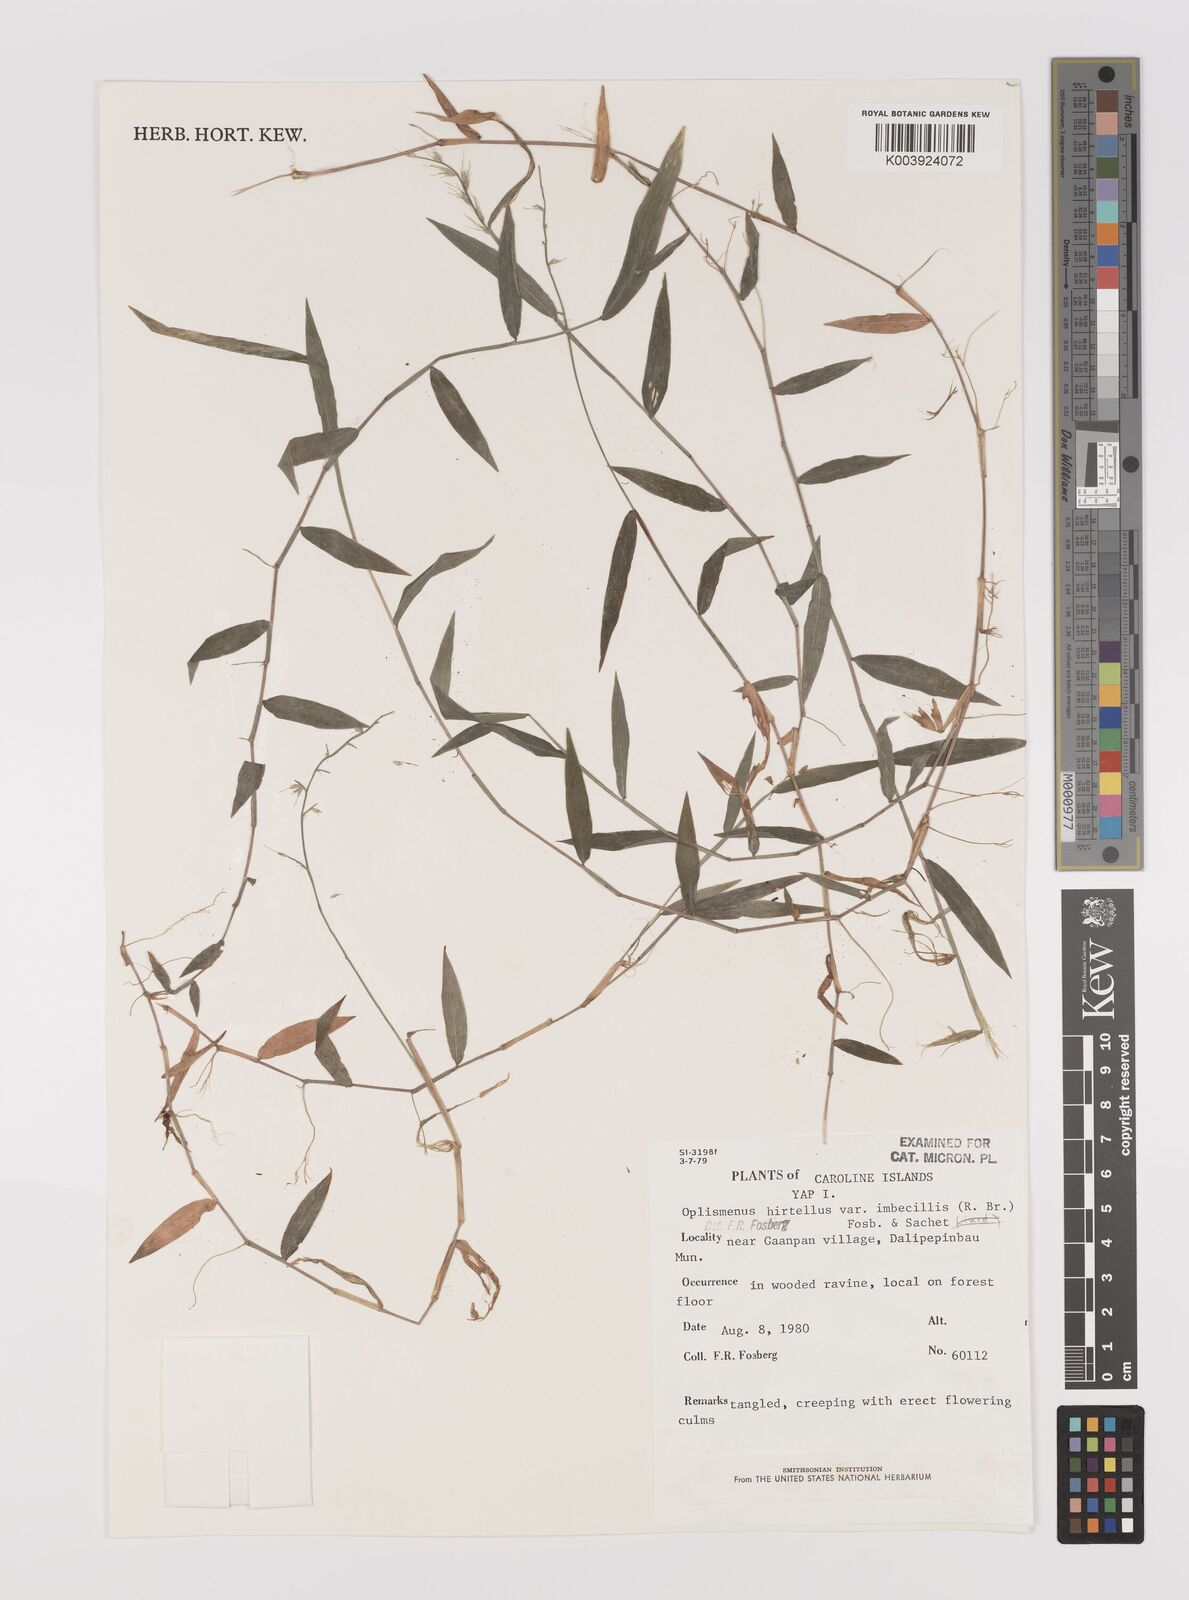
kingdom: Plantae
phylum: Tracheophyta
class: Liliopsida
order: Poales
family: Poaceae
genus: Oplismenus
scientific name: Oplismenus
